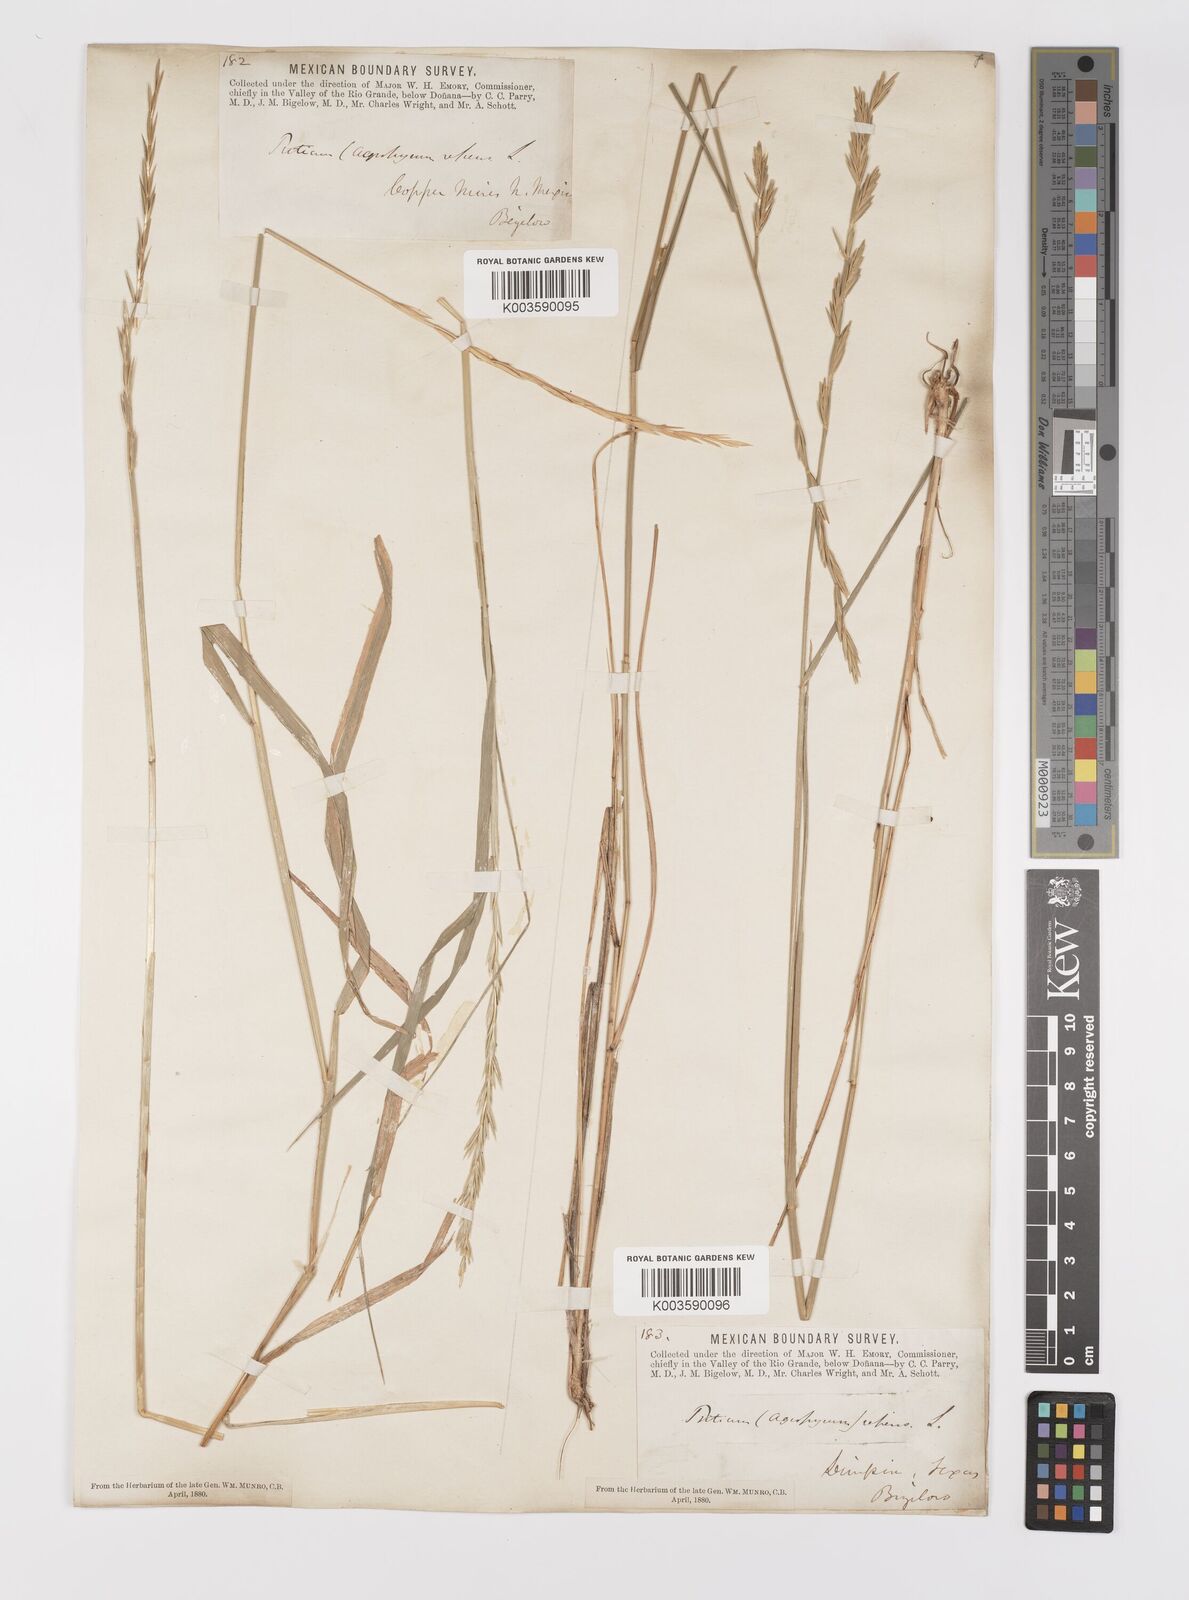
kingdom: Plantae
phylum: Tracheophyta
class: Liliopsida
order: Poales
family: Poaceae
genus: Elymus
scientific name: Elymus repens
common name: Quackgrass
